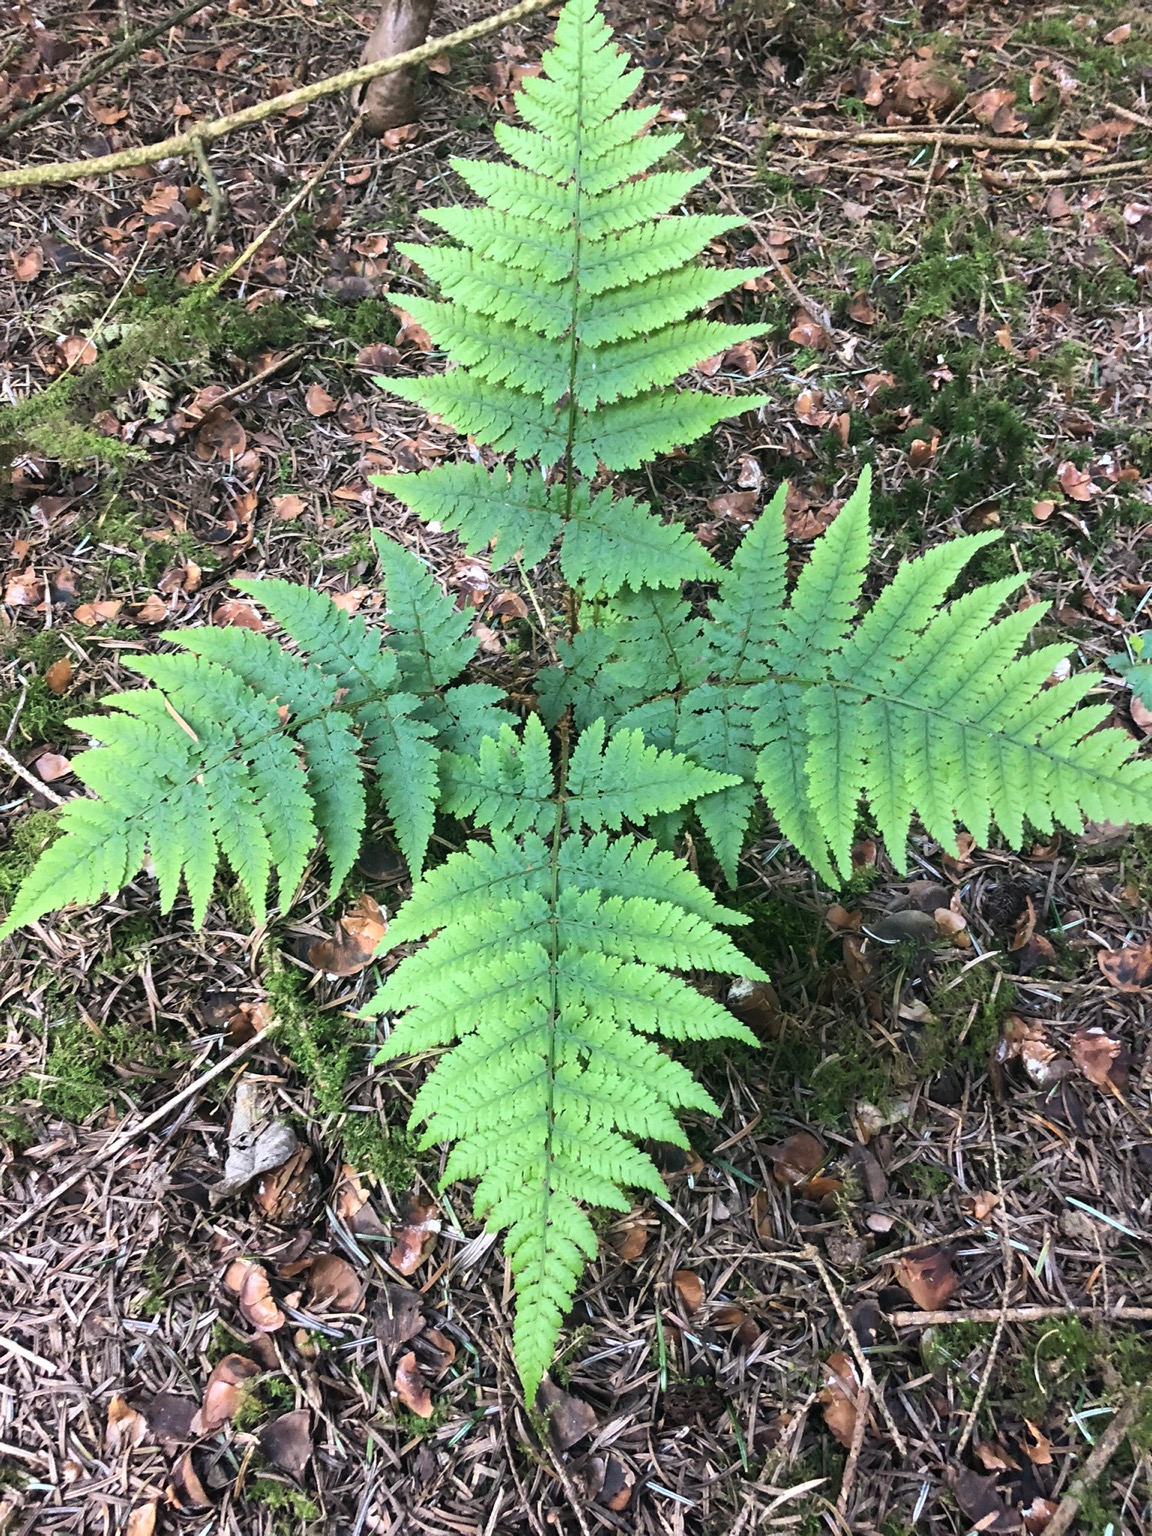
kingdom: Plantae
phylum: Tracheophyta
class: Polypodiopsida
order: Polypodiales
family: Dryopteridaceae
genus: Dryopteris
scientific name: Dryopteris dilatata
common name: Bredbladet mangeløv
